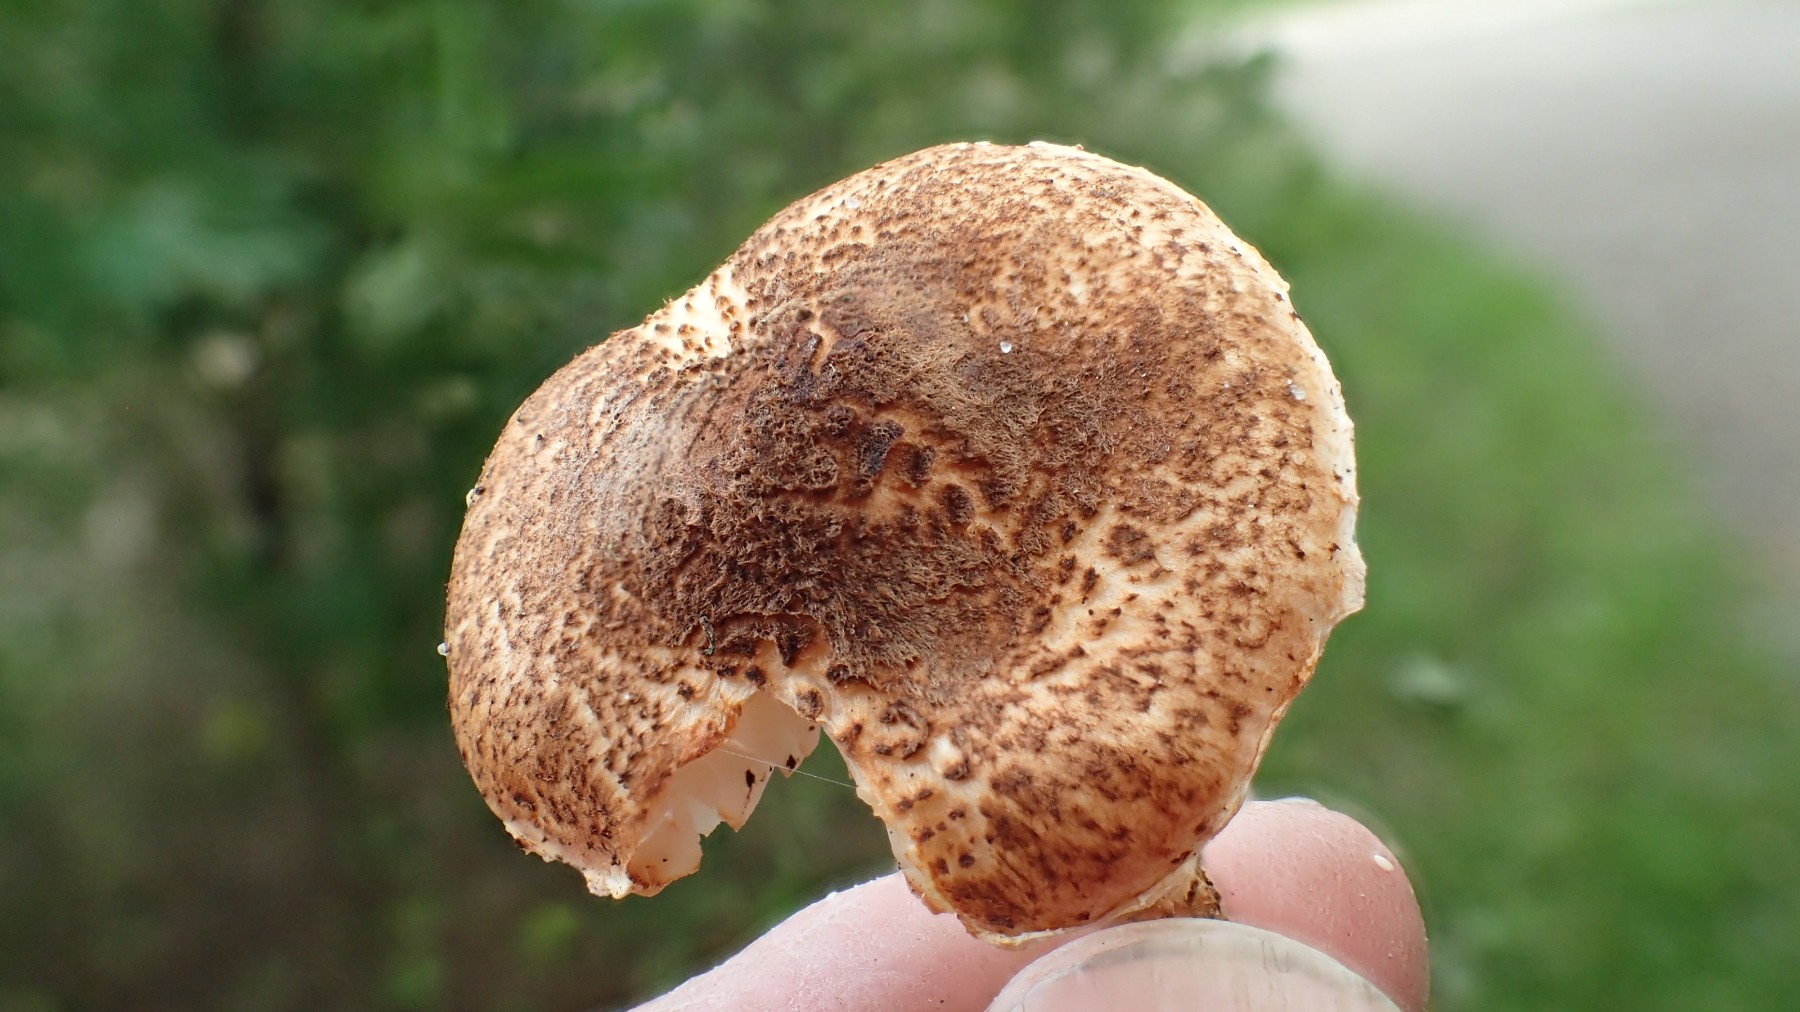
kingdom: Fungi
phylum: Basidiomycota
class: Agaricomycetes
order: Agaricales
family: Agaricaceae
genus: Lepiota
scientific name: Lepiota castanea
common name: kastaniebrun parasolhat
